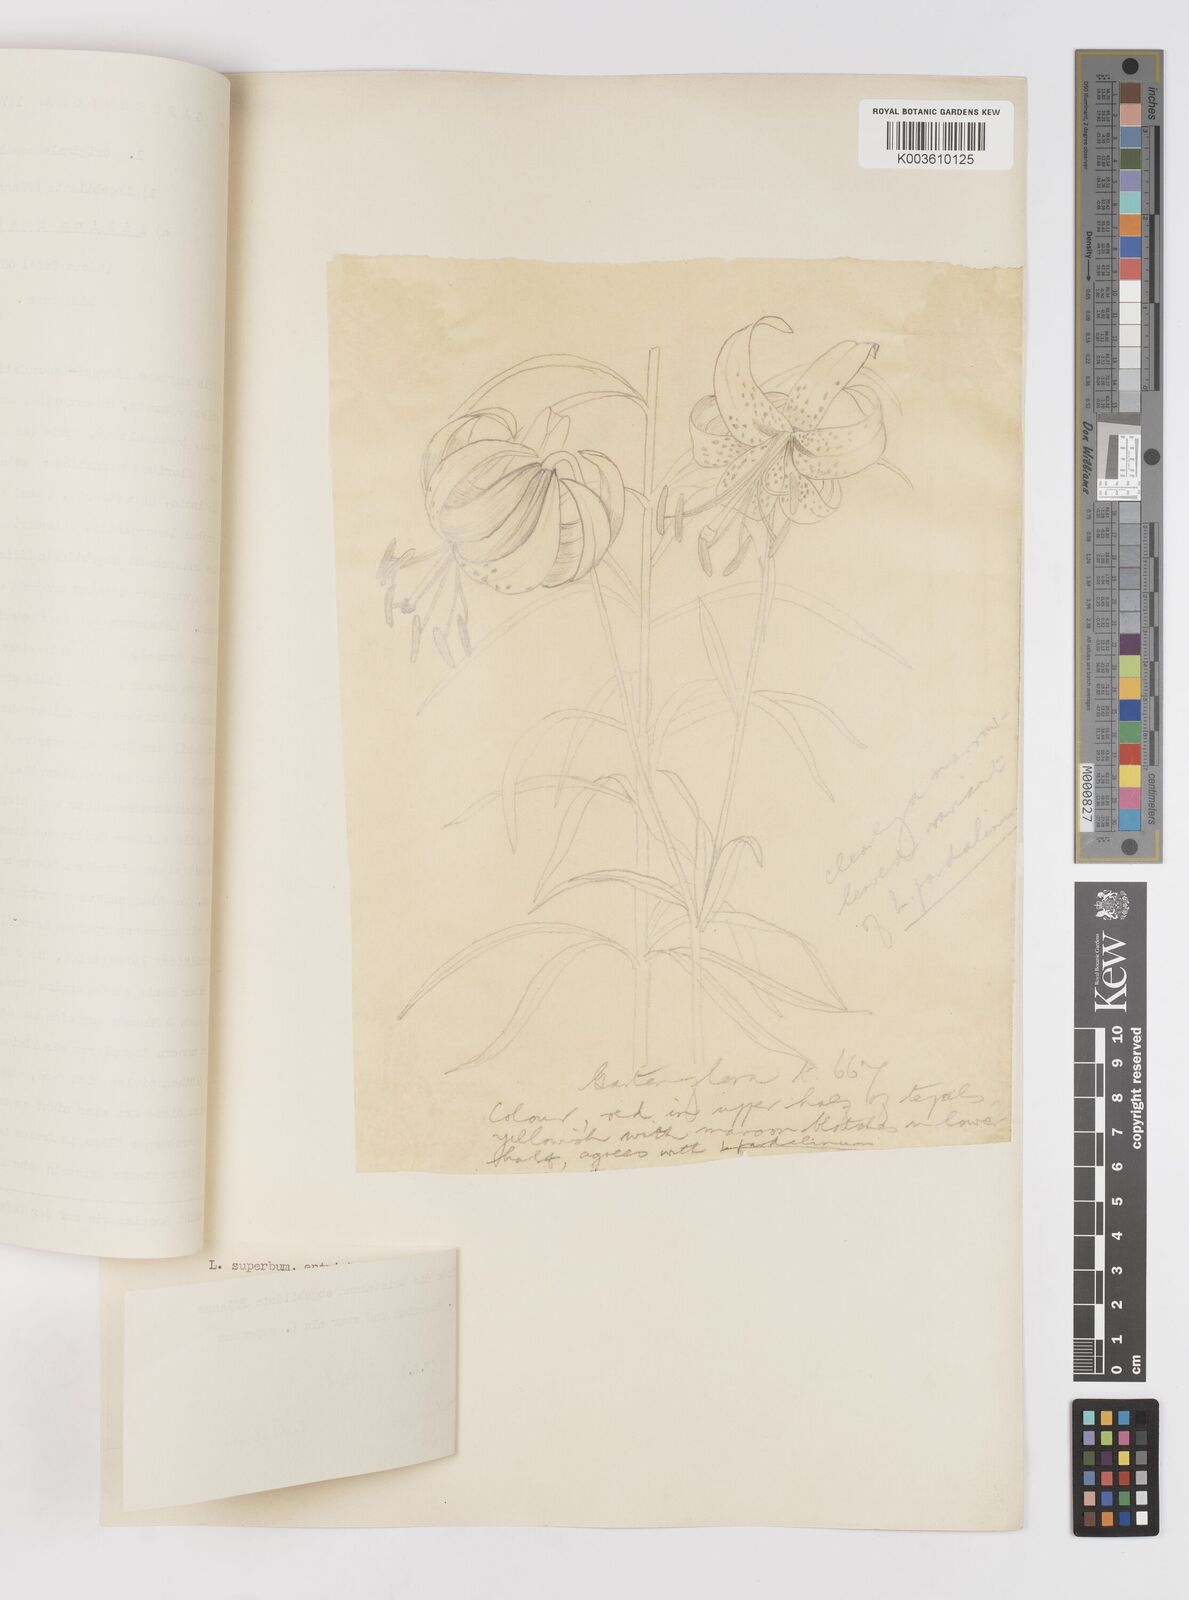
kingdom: Plantae
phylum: Tracheophyta
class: Liliopsida
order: Liliales
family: Liliaceae
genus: Lilium
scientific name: Lilium pardalinum
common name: Panther lily
